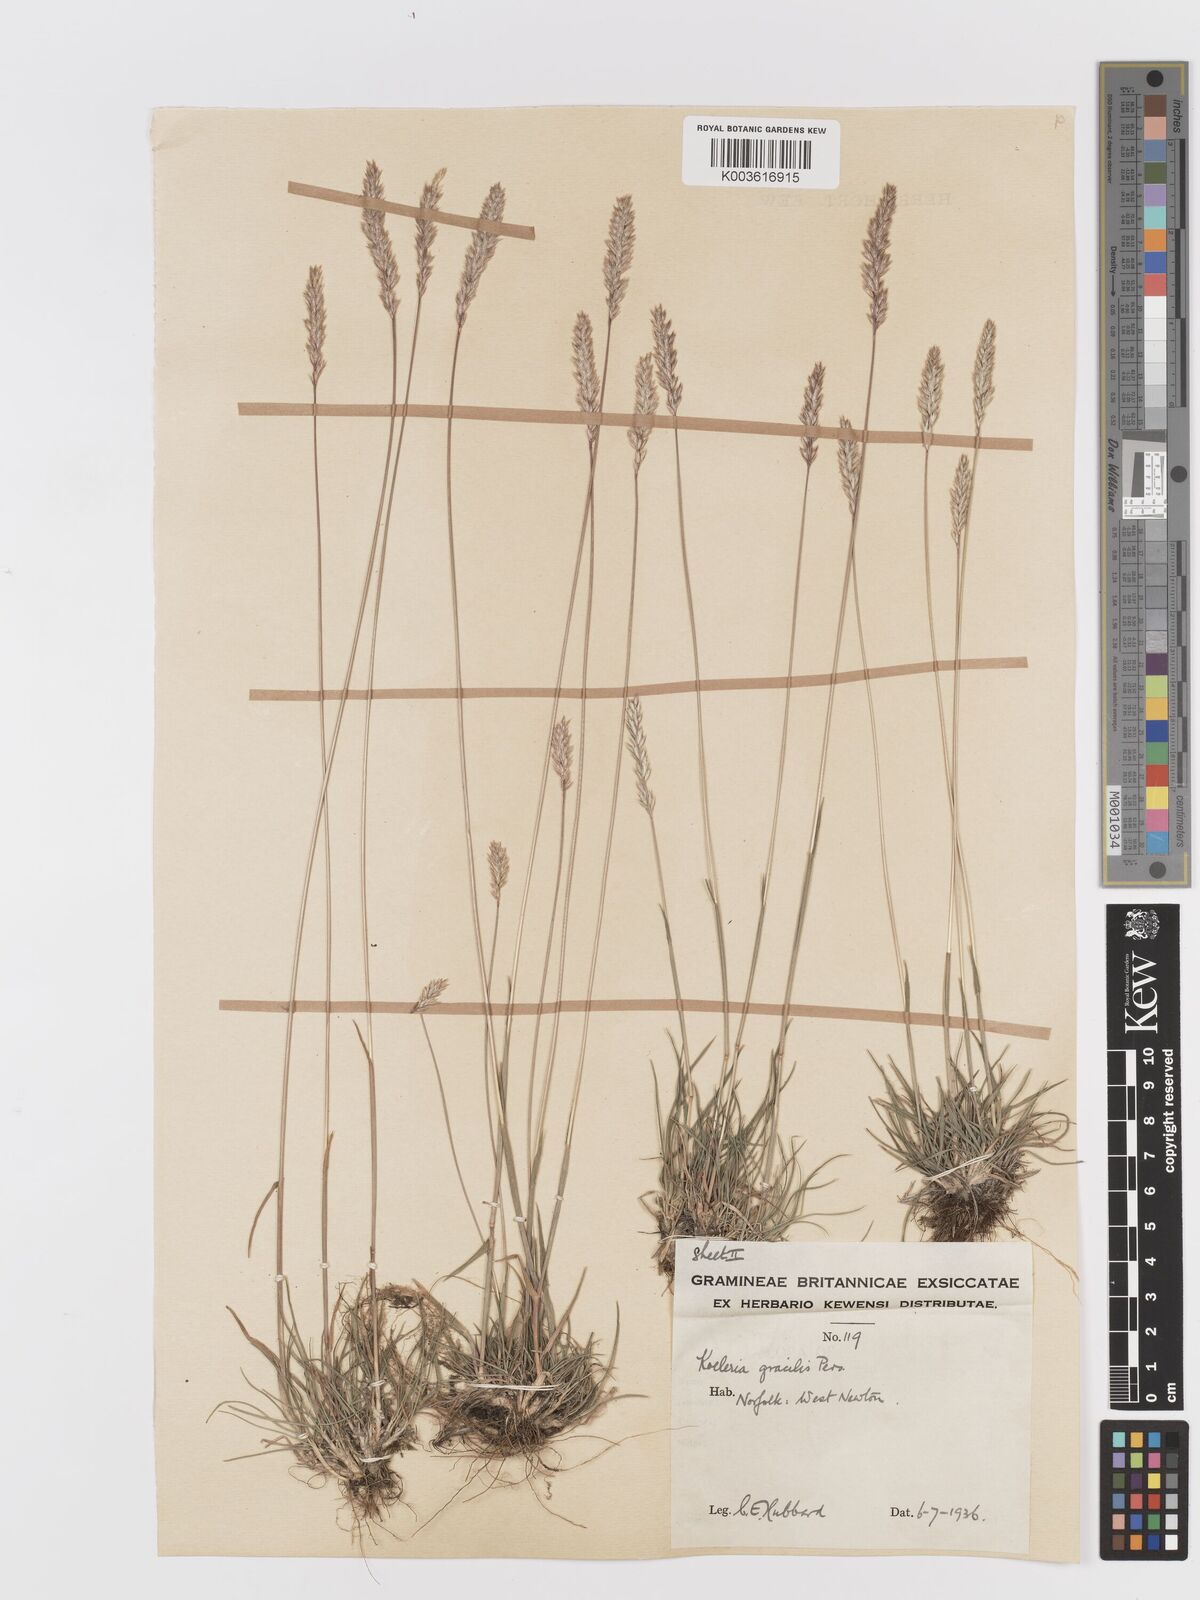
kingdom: Plantae
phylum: Tracheophyta
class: Liliopsida
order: Poales
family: Poaceae
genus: Koeleria
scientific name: Koeleria macrantha
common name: Crested hair-grass
